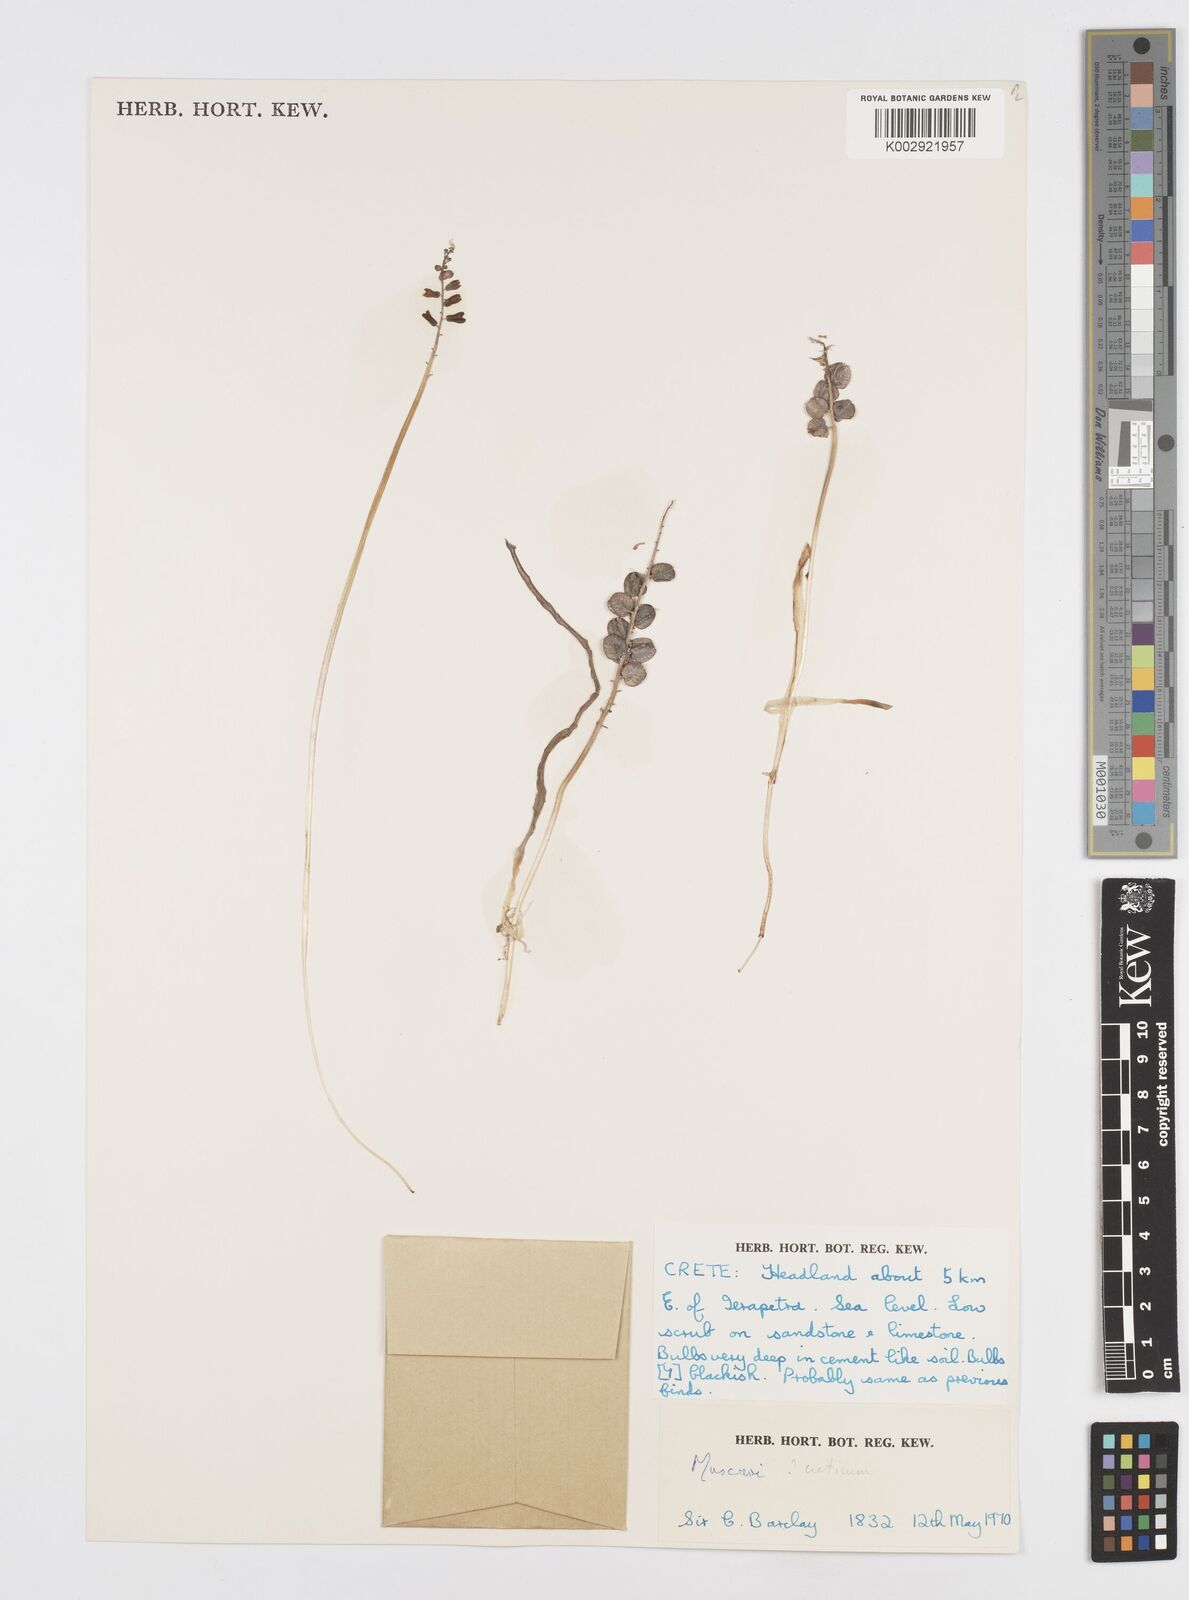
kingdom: Animalia
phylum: Mollusca
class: Cephalopoda
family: Neocomitidae
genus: Leopoldia
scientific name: Leopoldia
